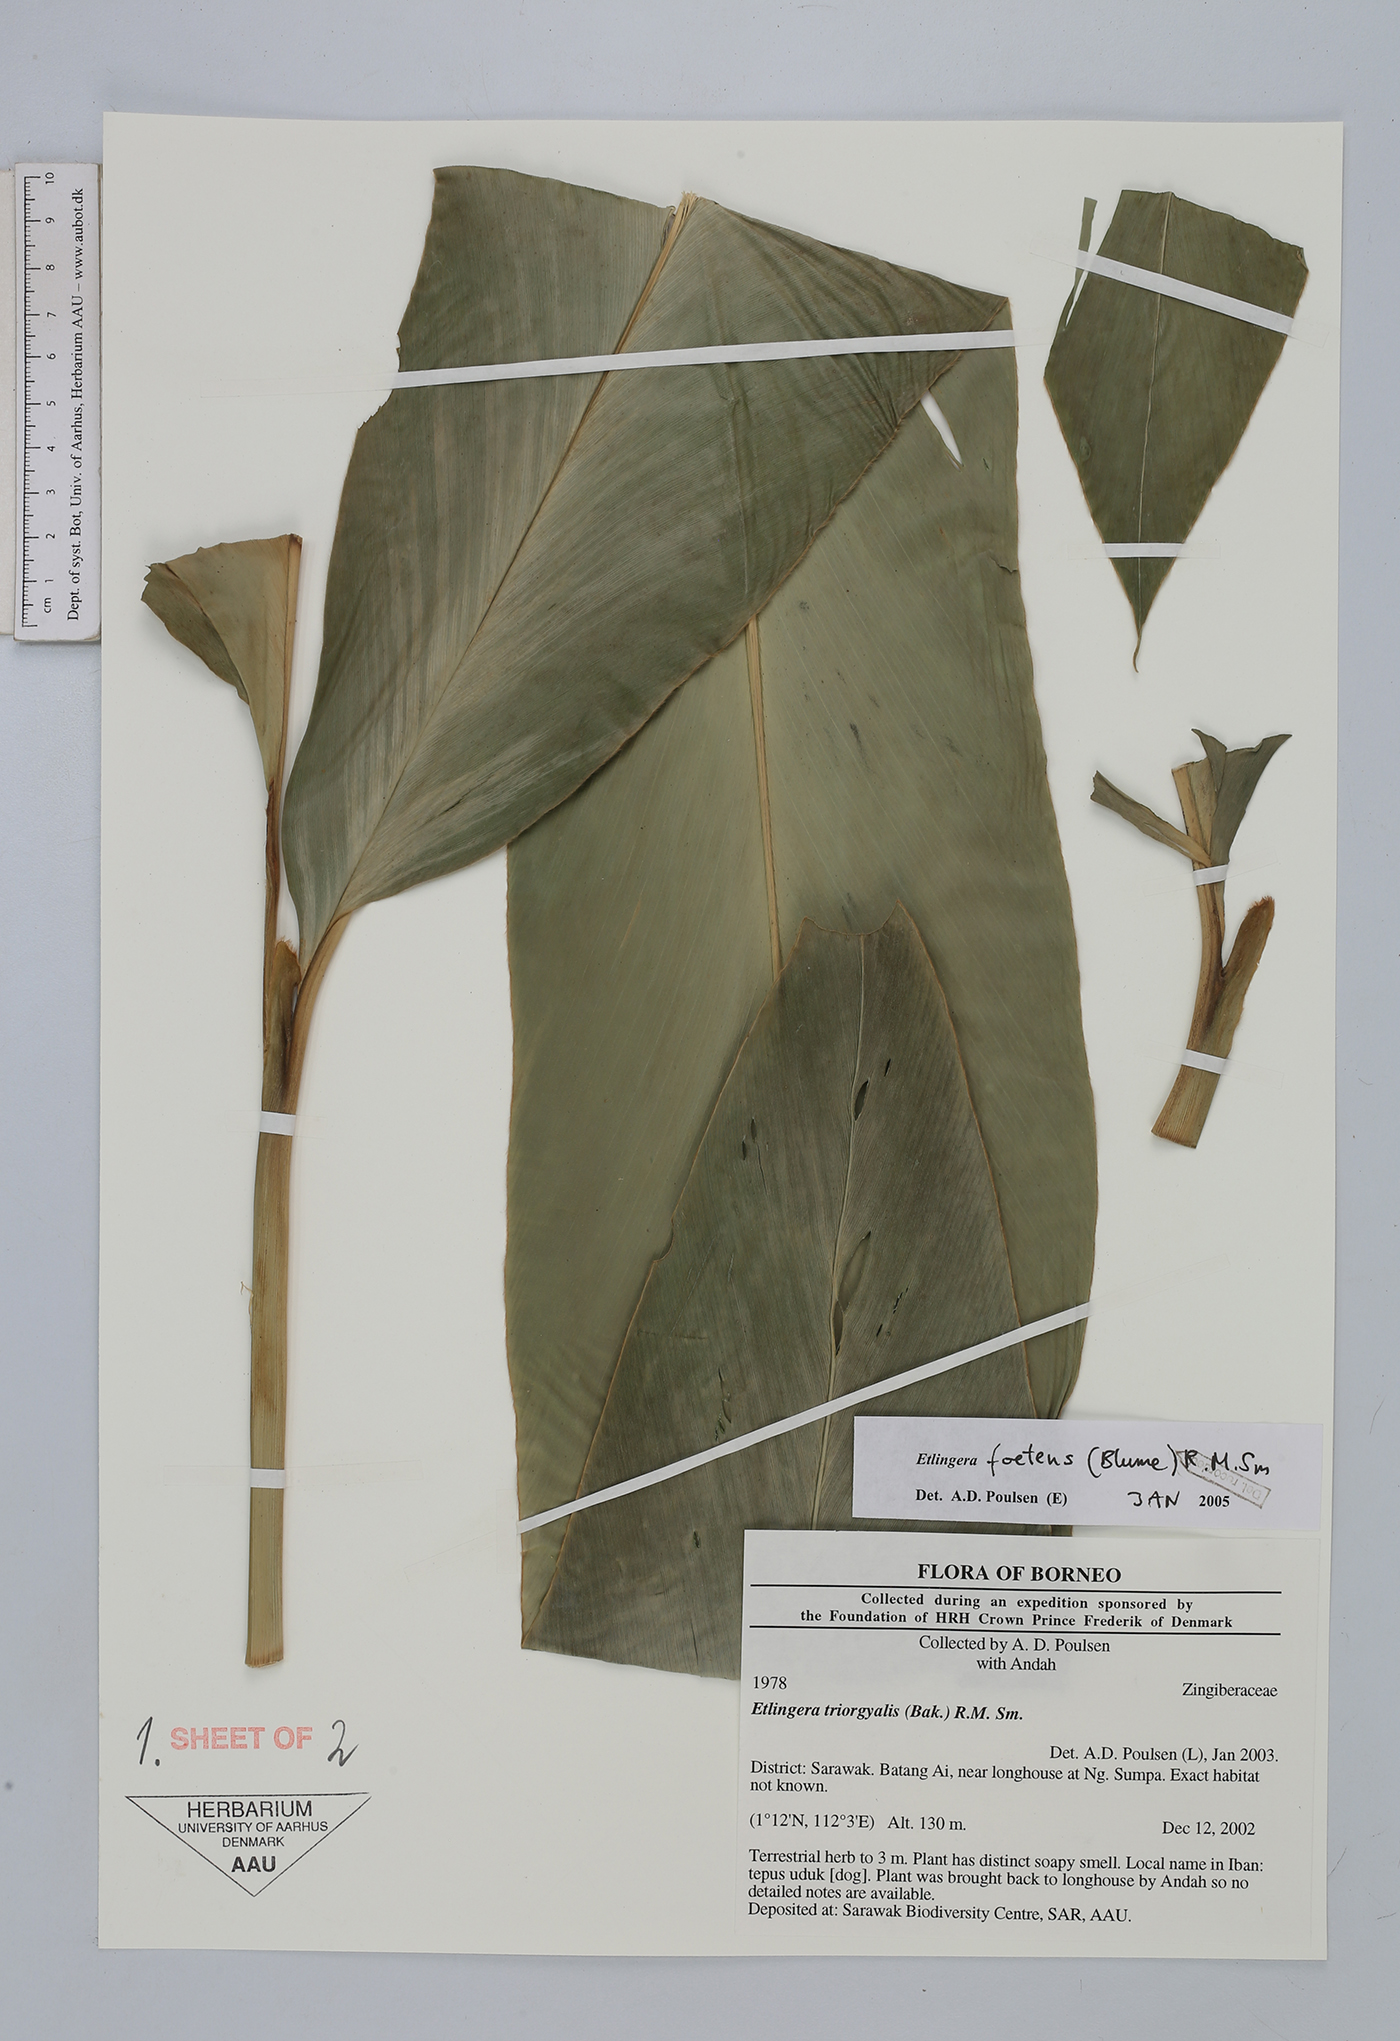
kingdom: Plantae
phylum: Tracheophyta
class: Liliopsida
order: Zingiberales
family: Zingiberaceae
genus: Etlingera
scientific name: Etlingera foetens
